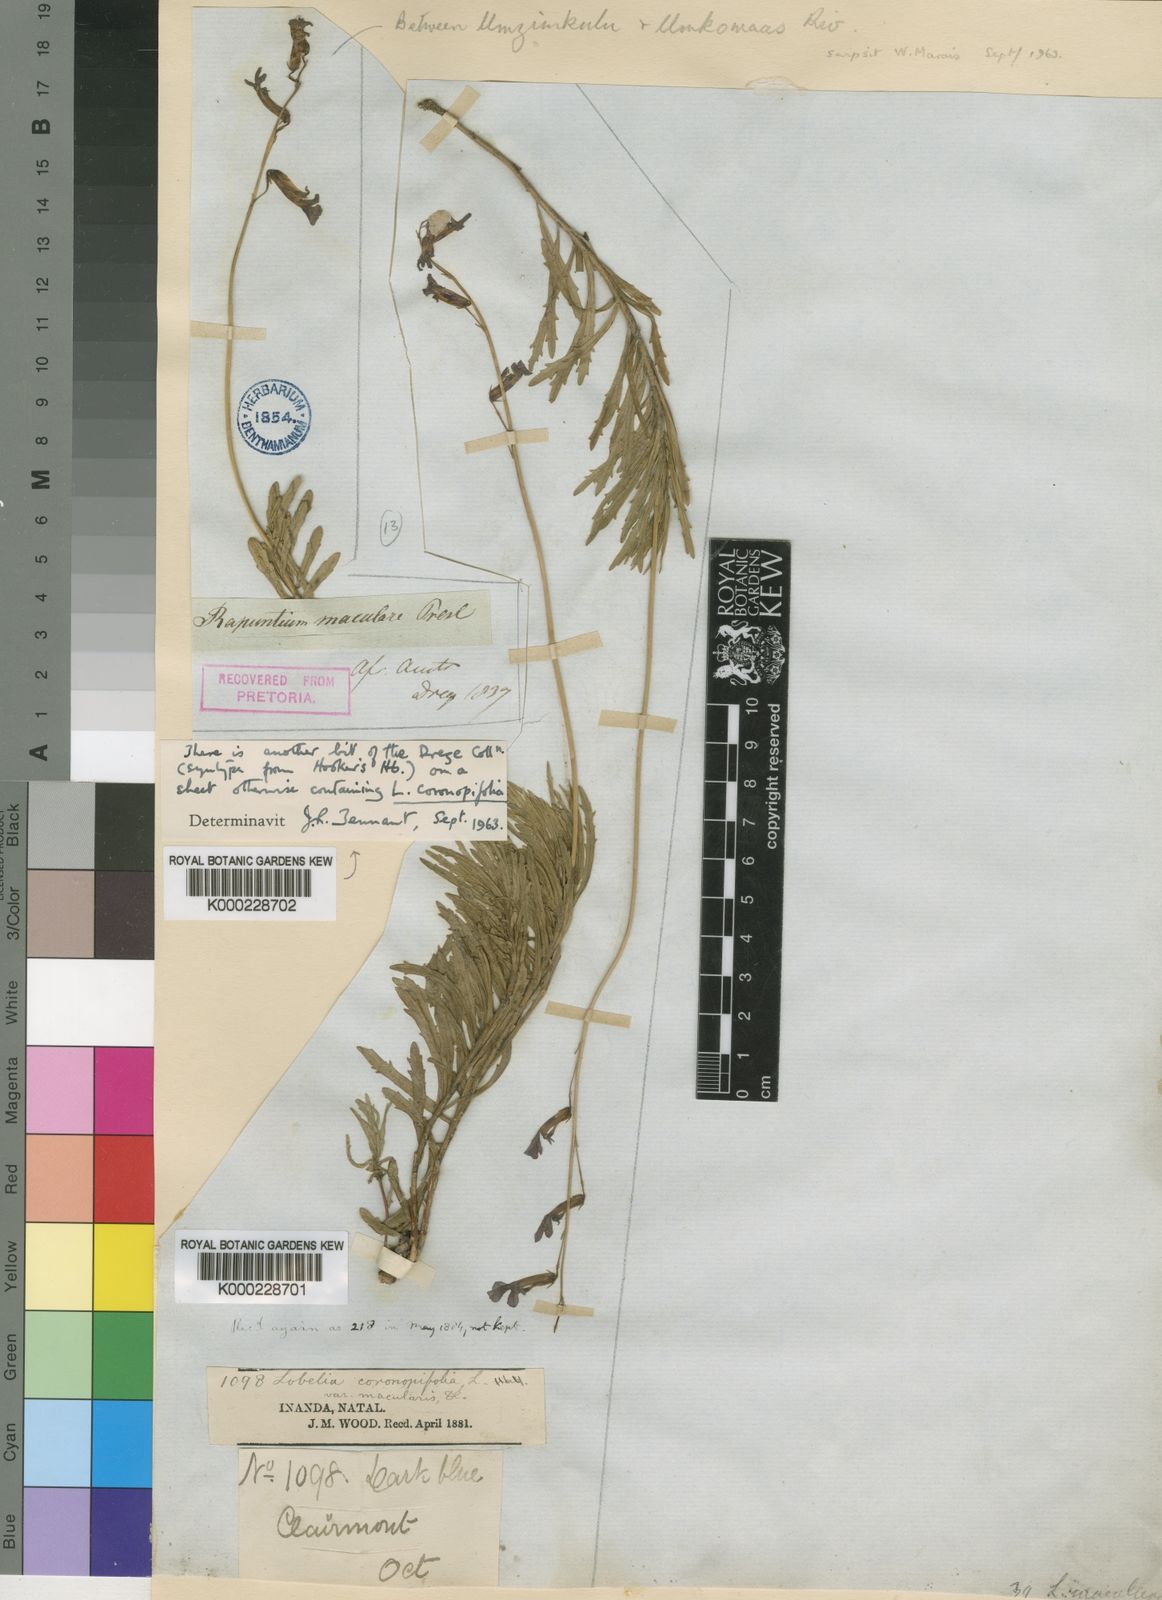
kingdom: Plantae
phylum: Tracheophyta
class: Magnoliopsida
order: Asterales
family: Campanulaceae
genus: Lobelia
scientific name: Lobelia
